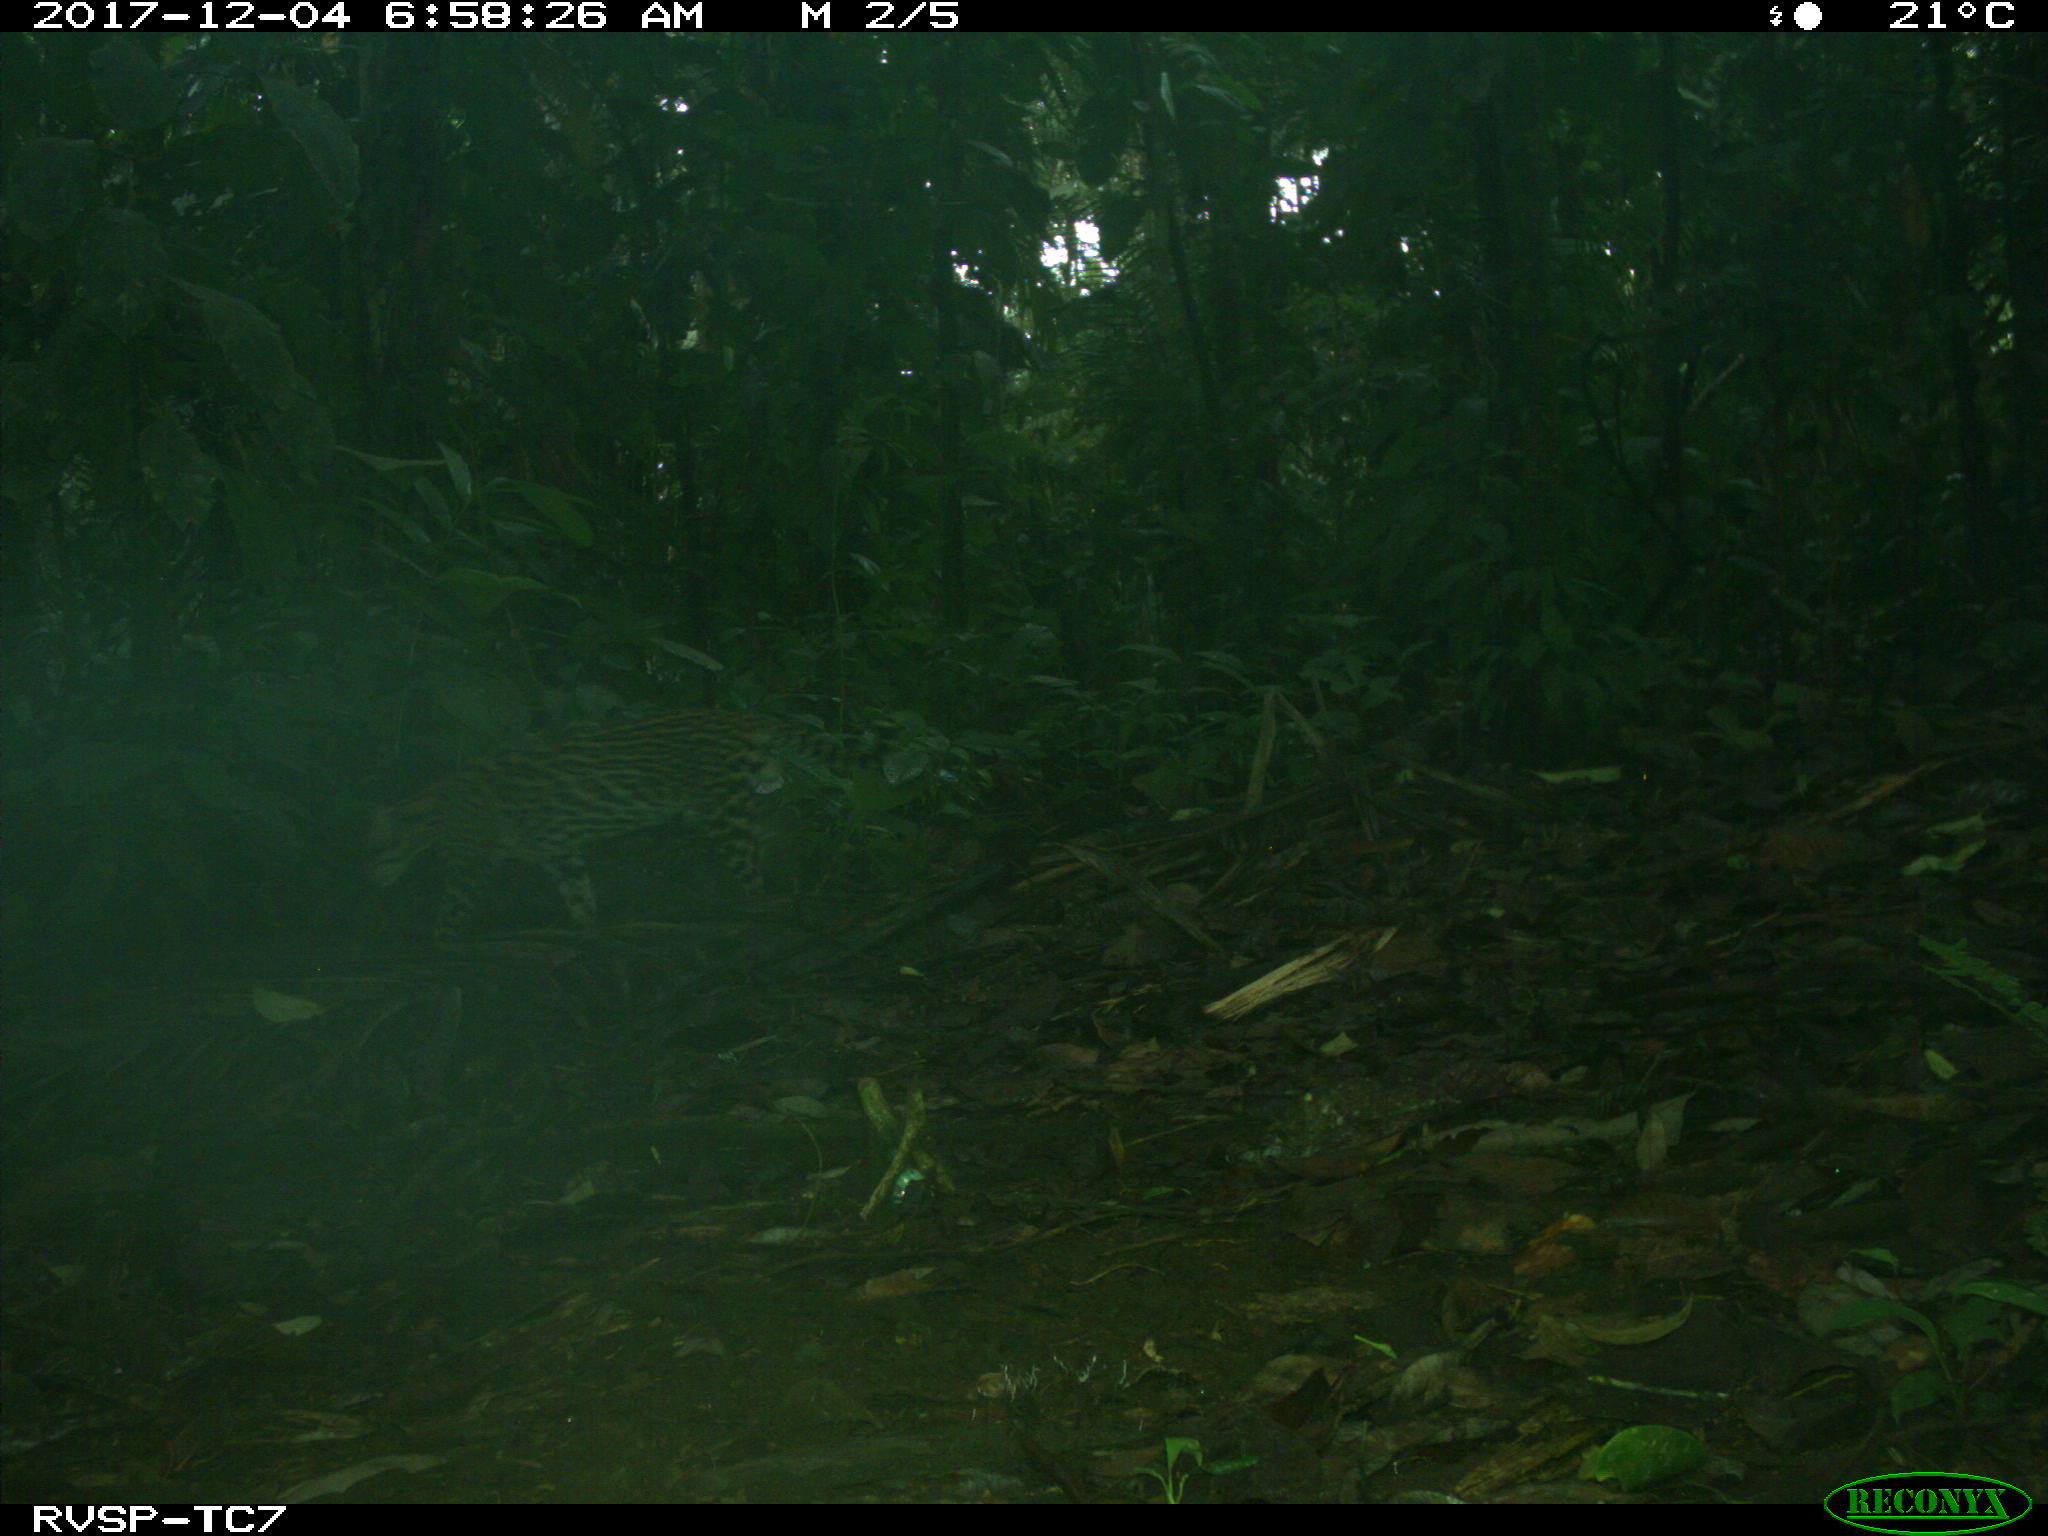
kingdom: Animalia
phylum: Chordata
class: Mammalia
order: Carnivora
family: Felidae
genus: Leopardus
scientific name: Leopardus pardalis
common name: Ocelot
